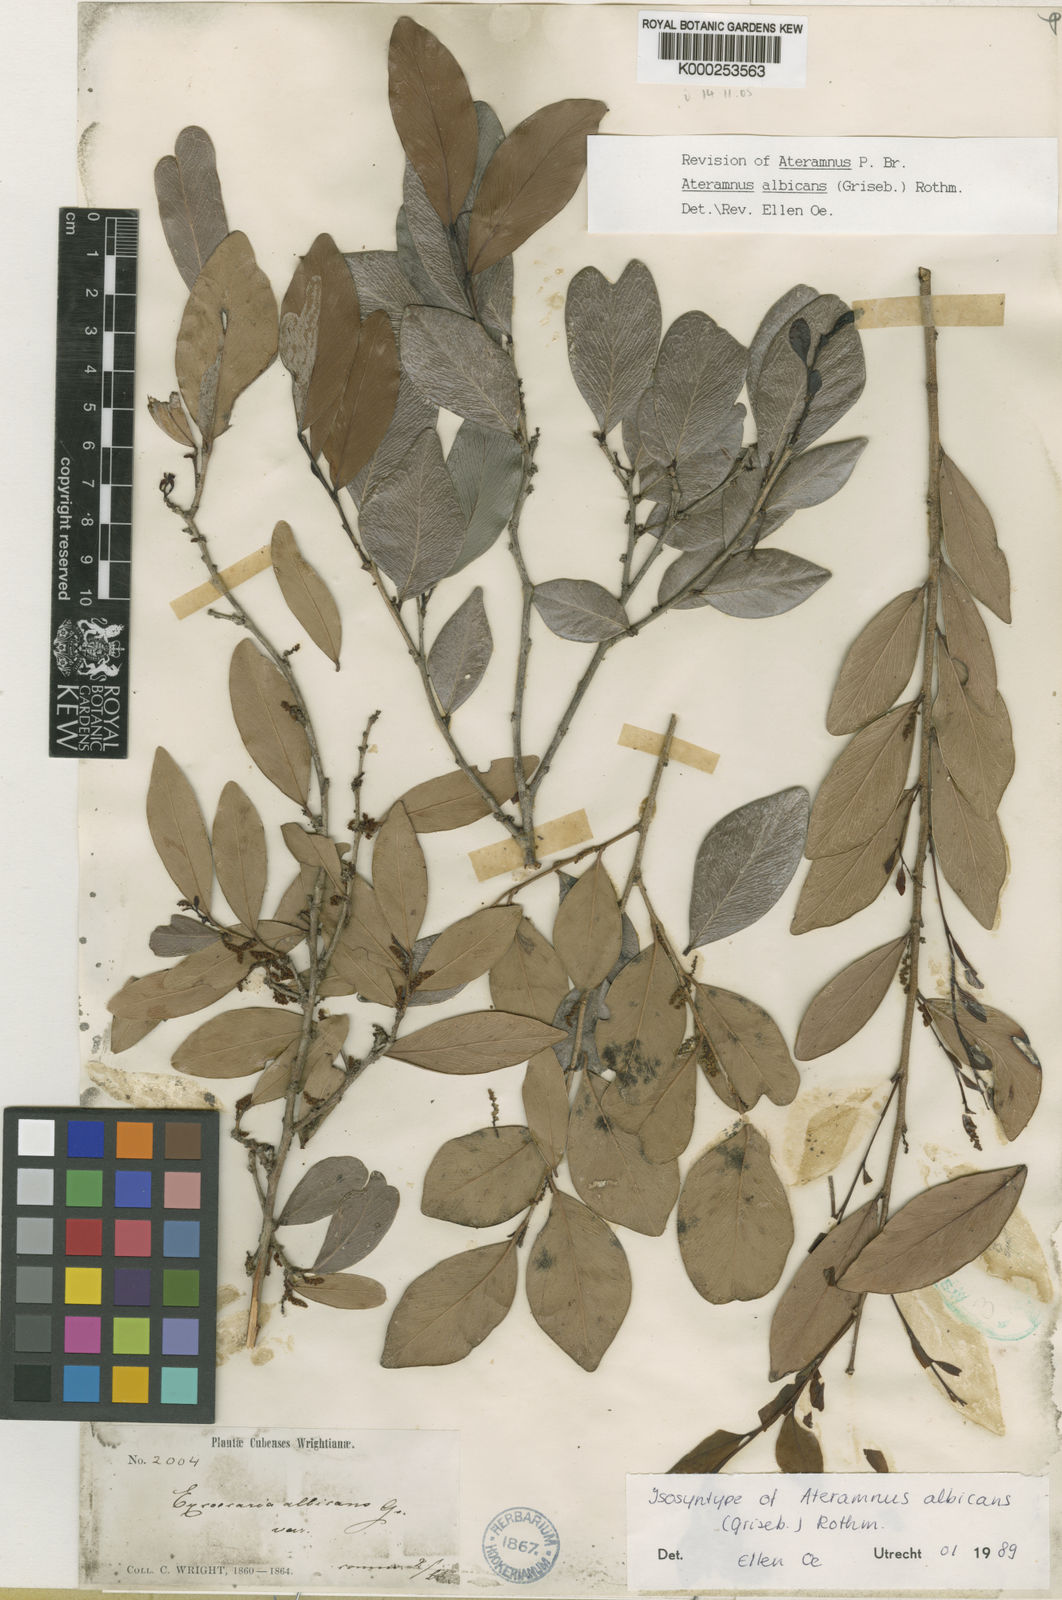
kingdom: Plantae
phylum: Tracheophyta
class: Magnoliopsida
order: Malpighiales
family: Euphorbiaceae
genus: Gymnanthes
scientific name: Gymnanthes albicans
